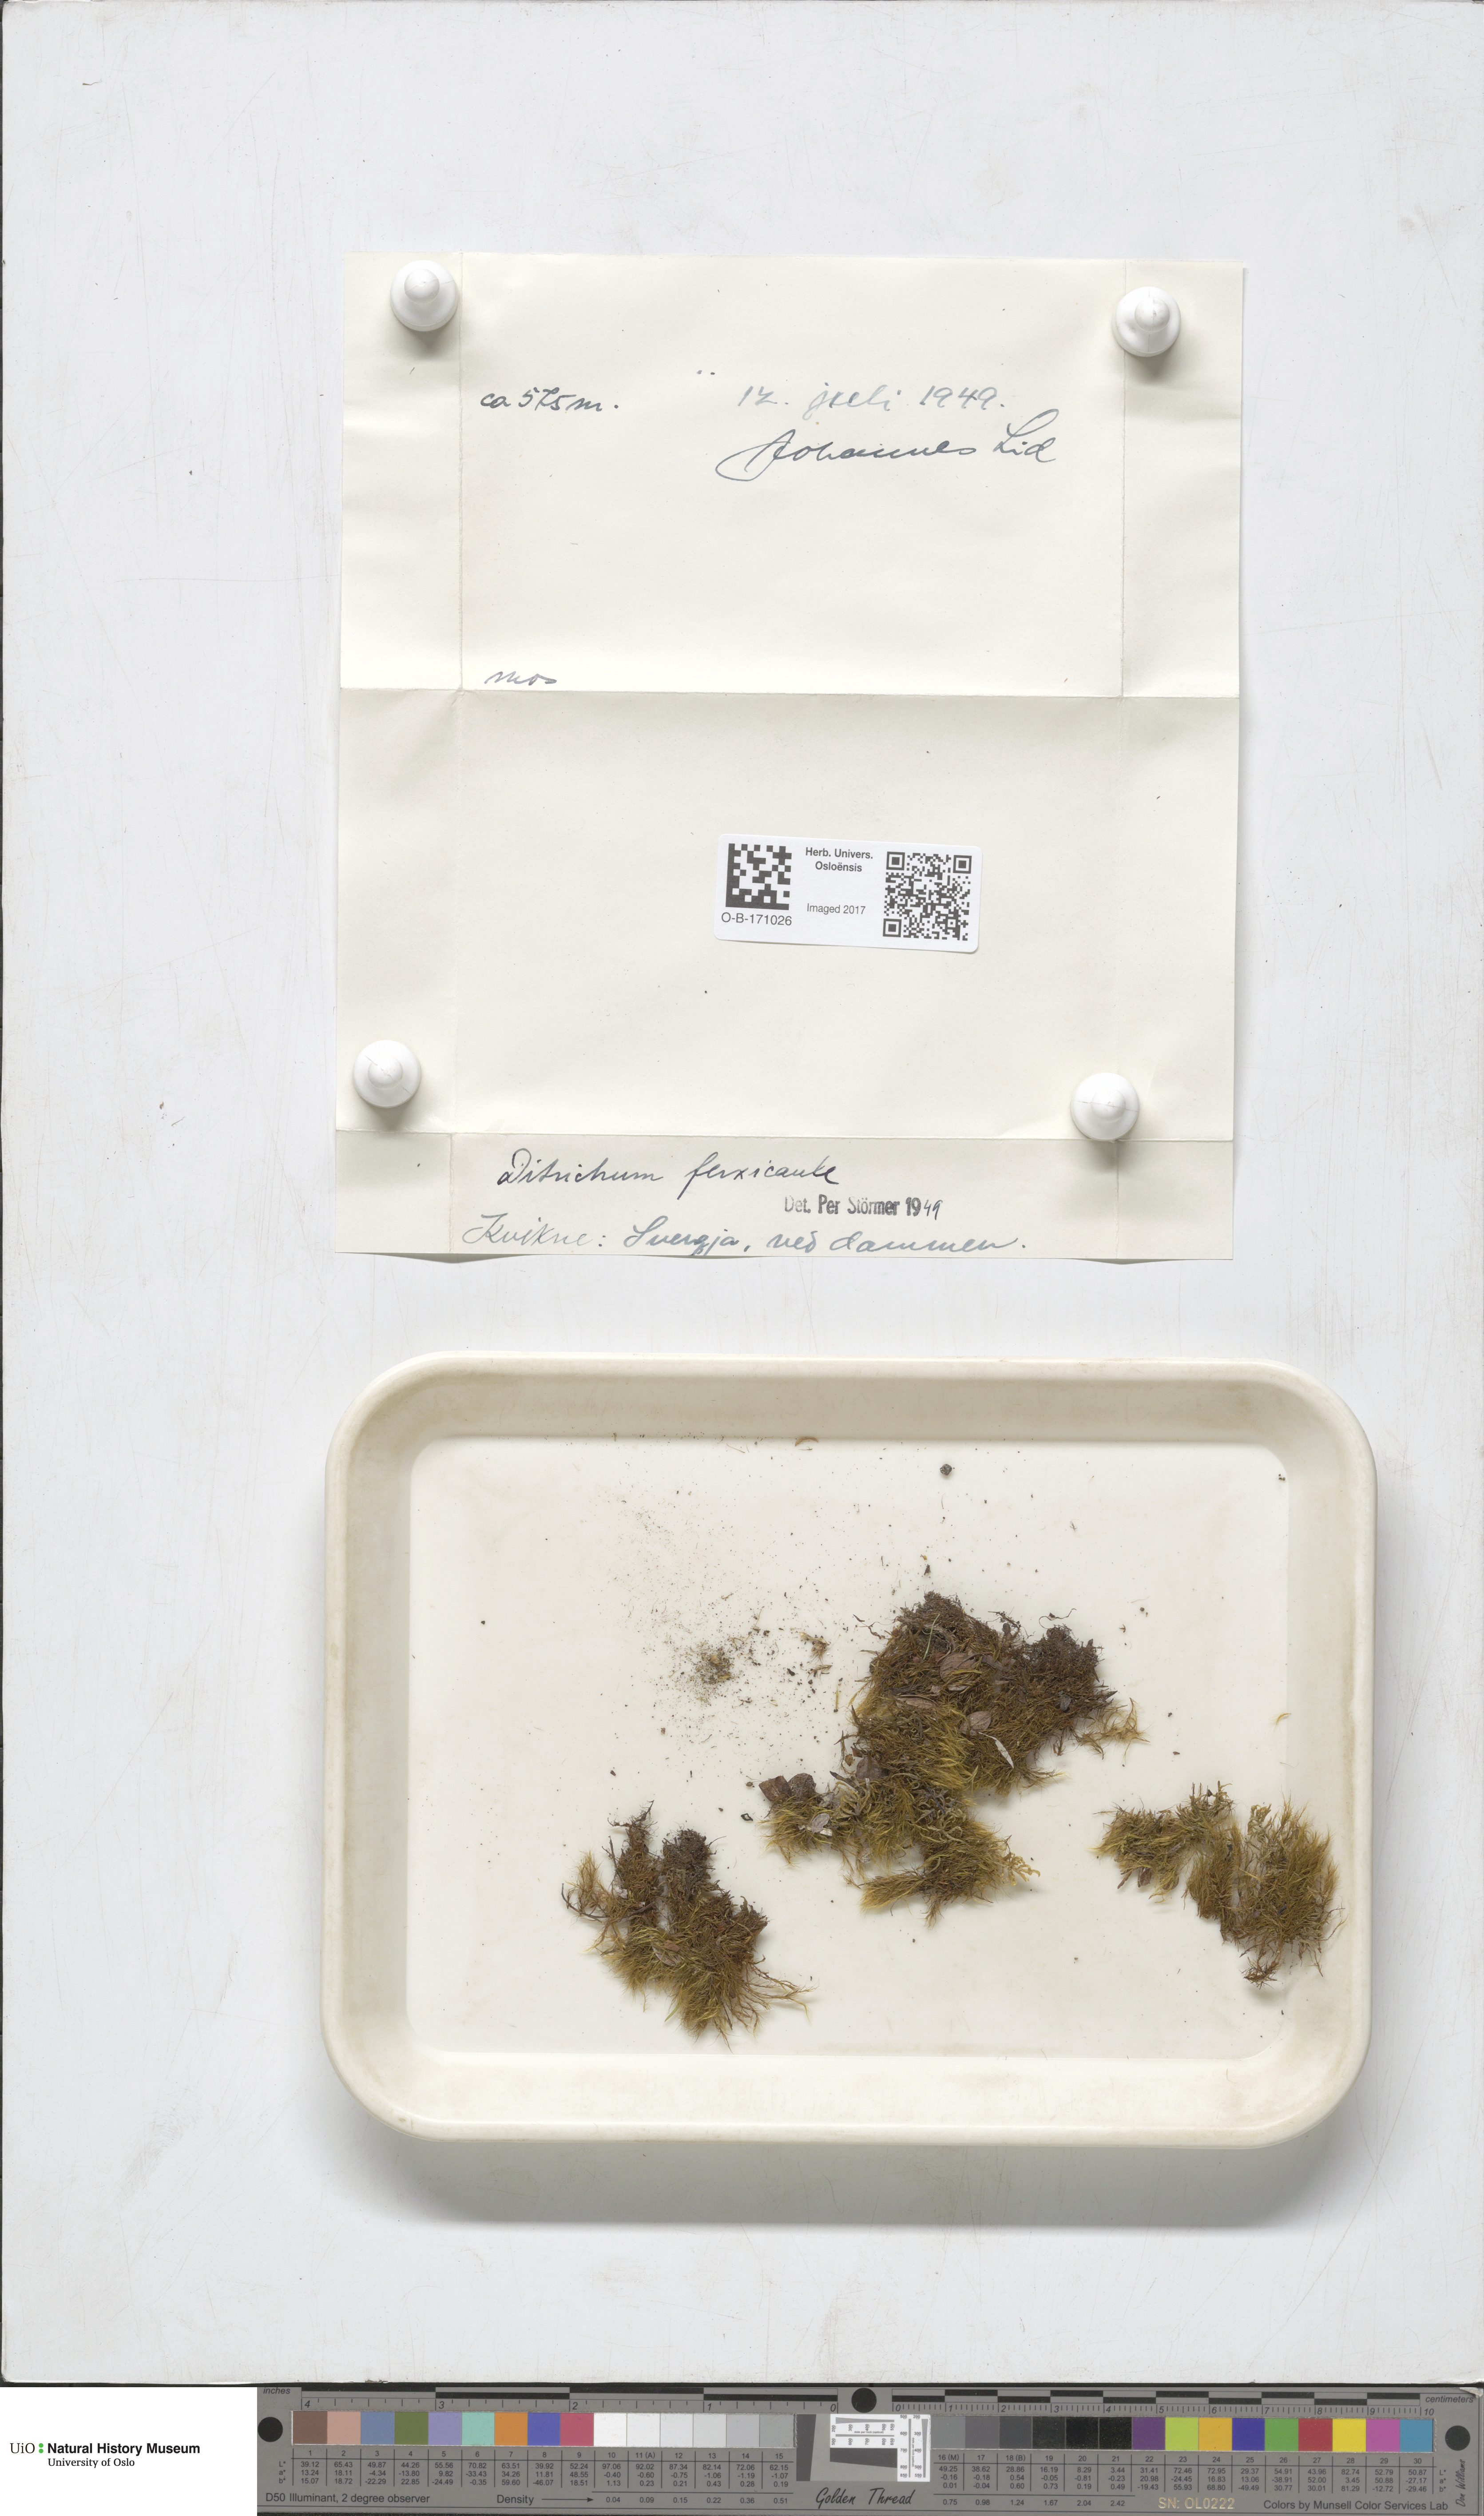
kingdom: Plantae
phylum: Bryophyta
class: Bryopsida
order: Scouleriales
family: Flexitrichaceae
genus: Flexitrichum
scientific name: Flexitrichum flexicaule
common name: Bendy ditrichum
